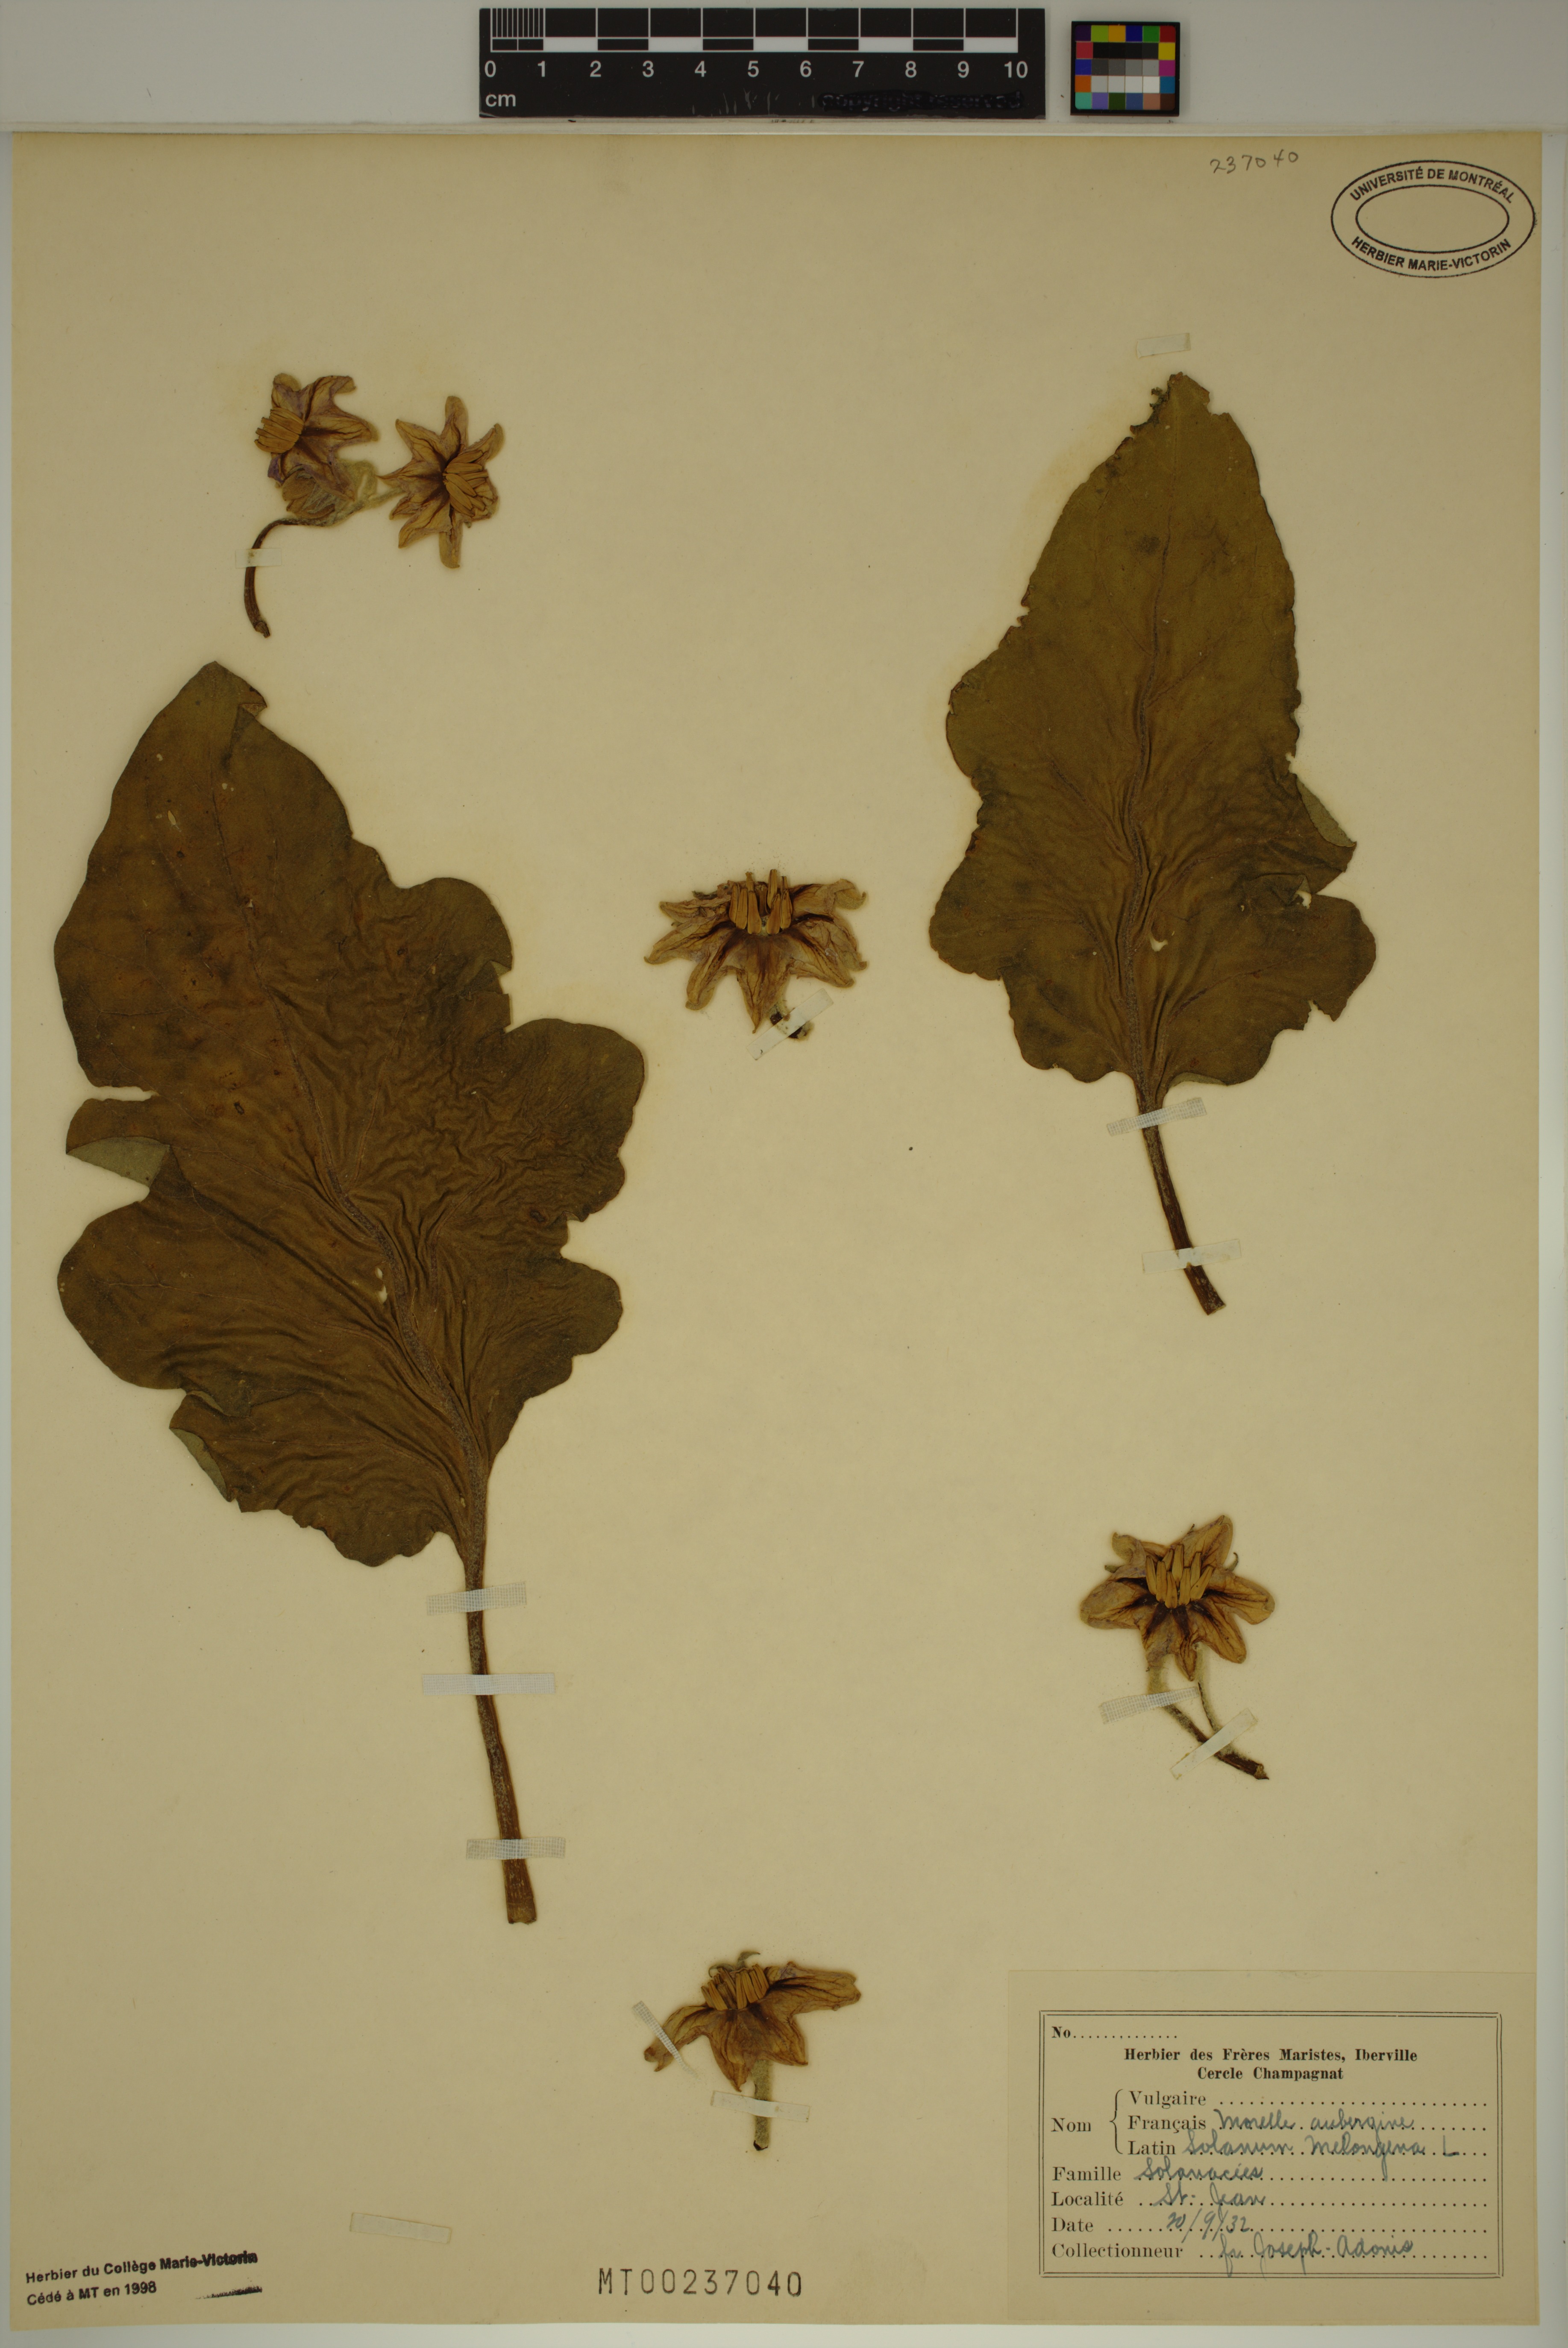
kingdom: Plantae
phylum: Tracheophyta
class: Magnoliopsida
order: Solanales
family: Solanaceae
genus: Solanum
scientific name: Solanum melongena
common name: Eggplant
